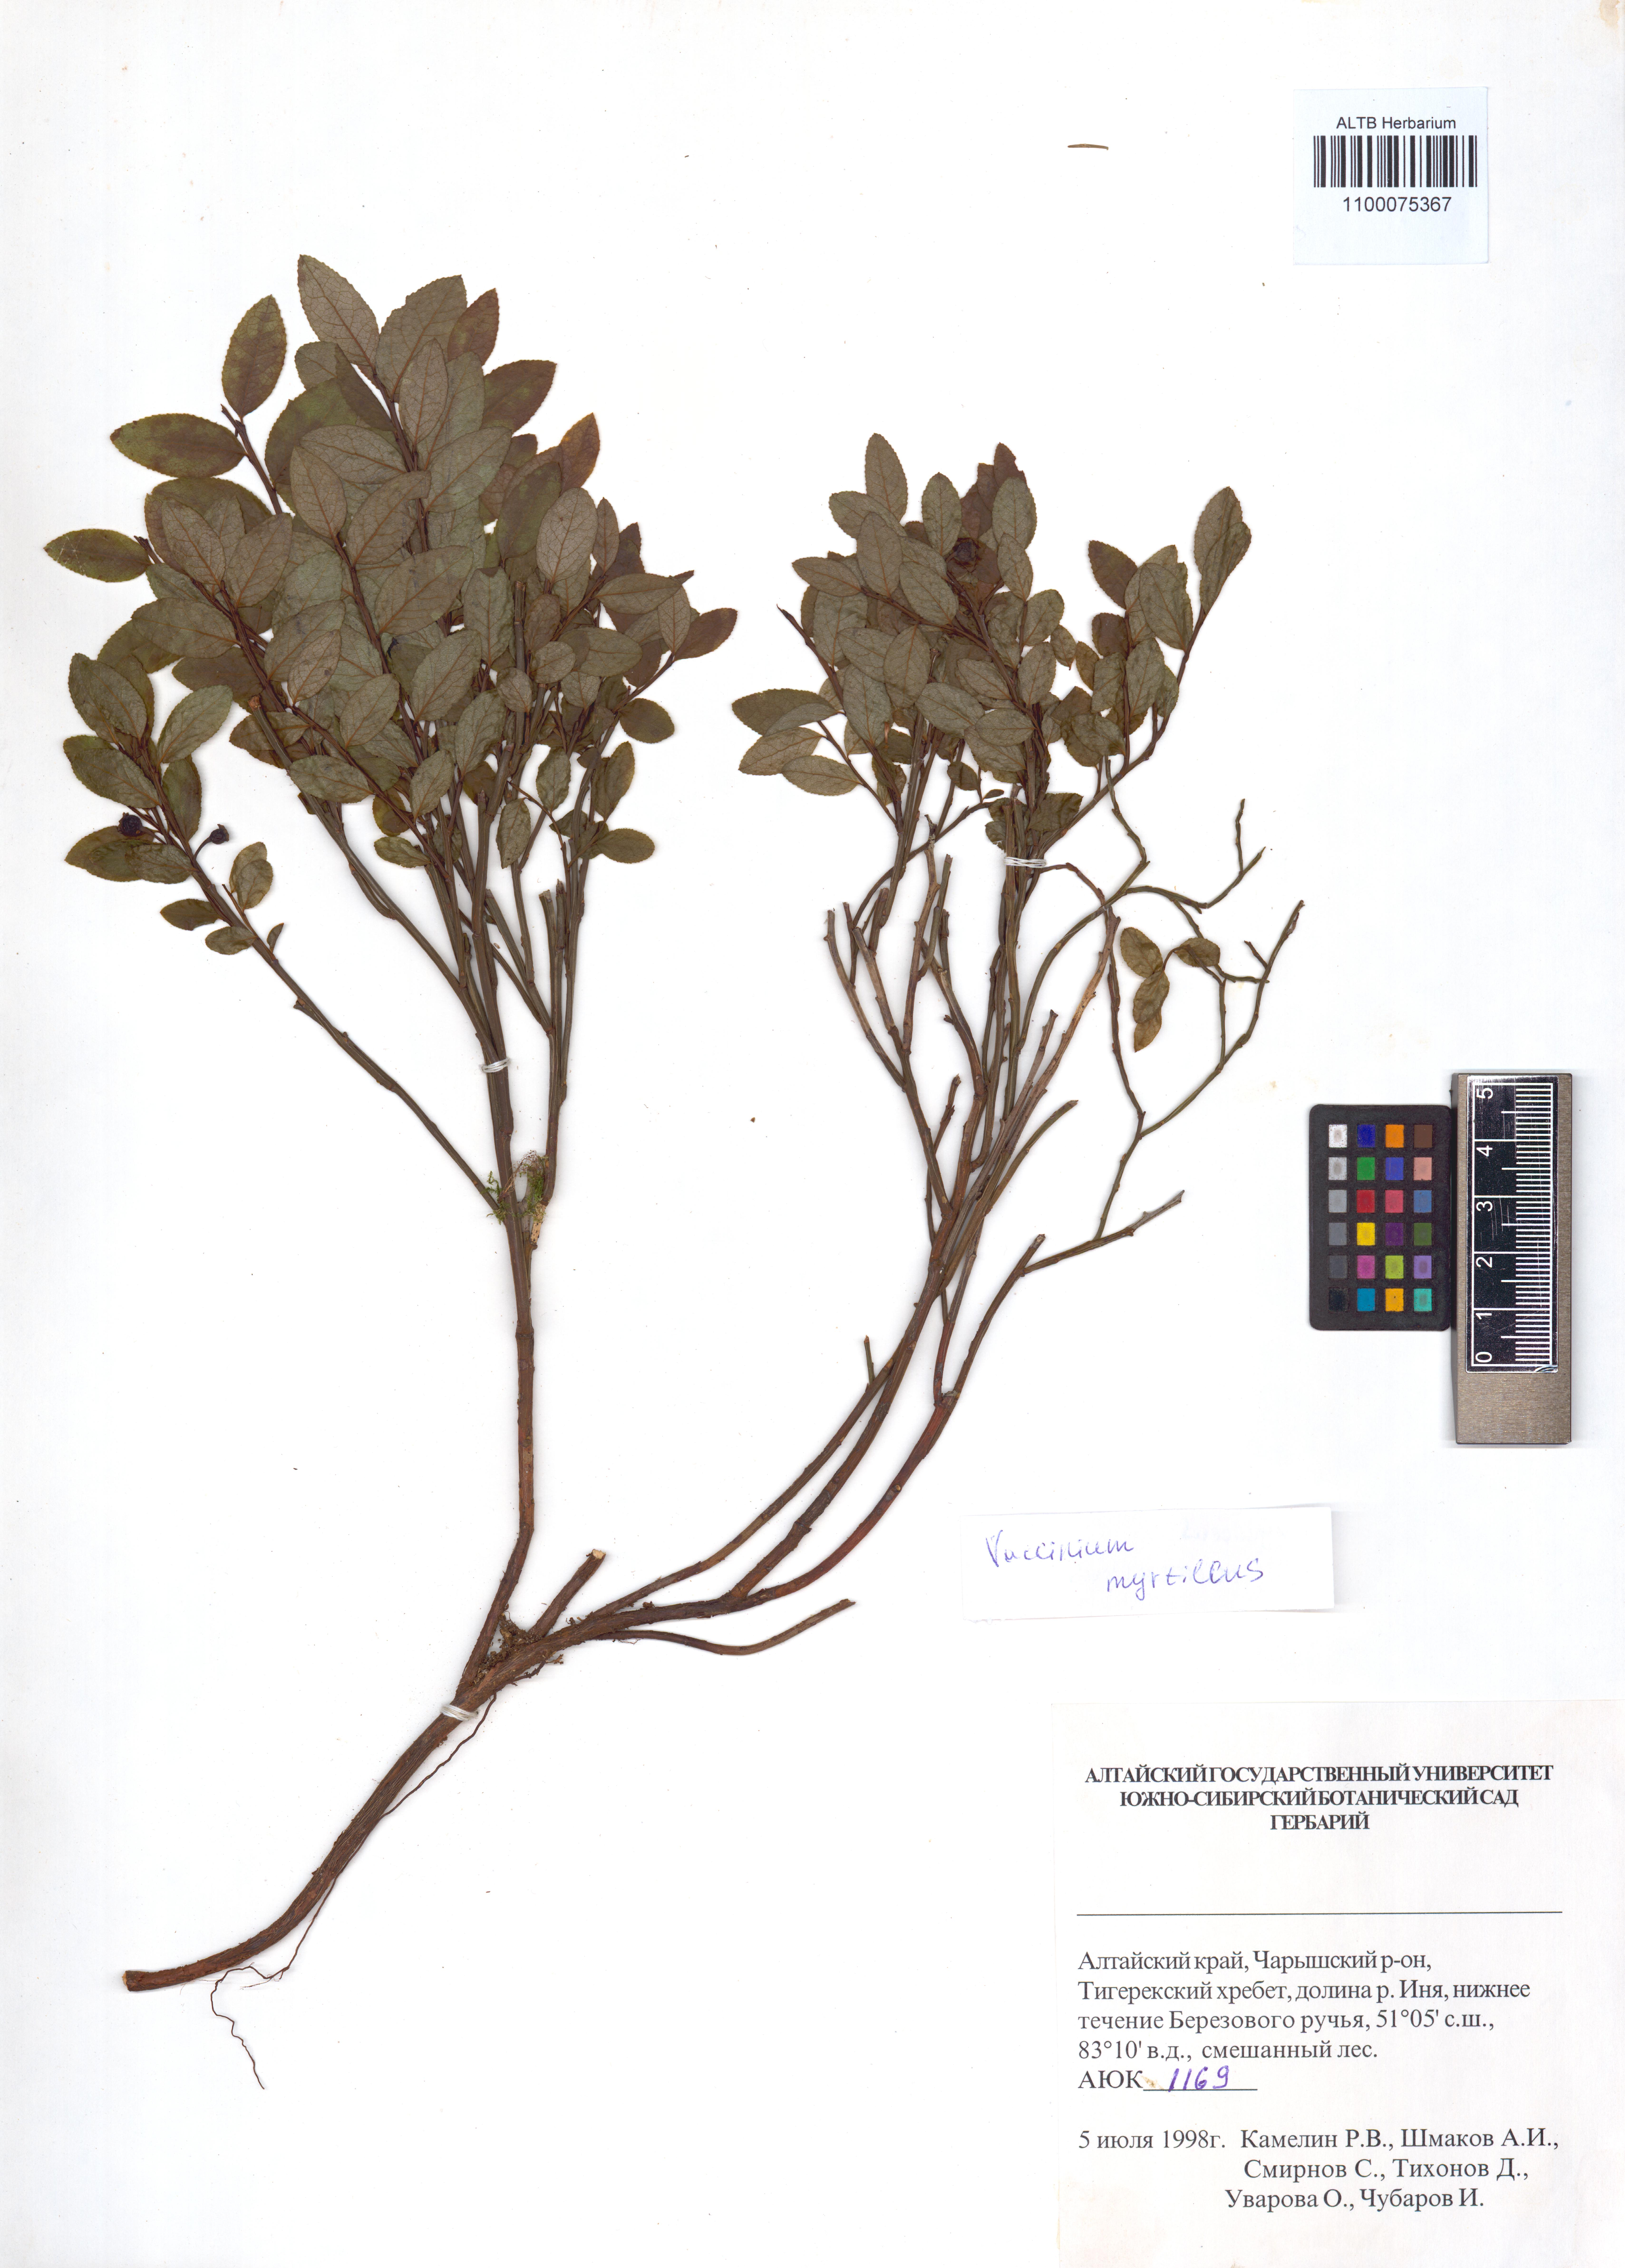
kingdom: Plantae
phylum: Tracheophyta
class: Magnoliopsida
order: Ericales
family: Ericaceae
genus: Vaccinium
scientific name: Vaccinium myrtillus
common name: Bilberry
